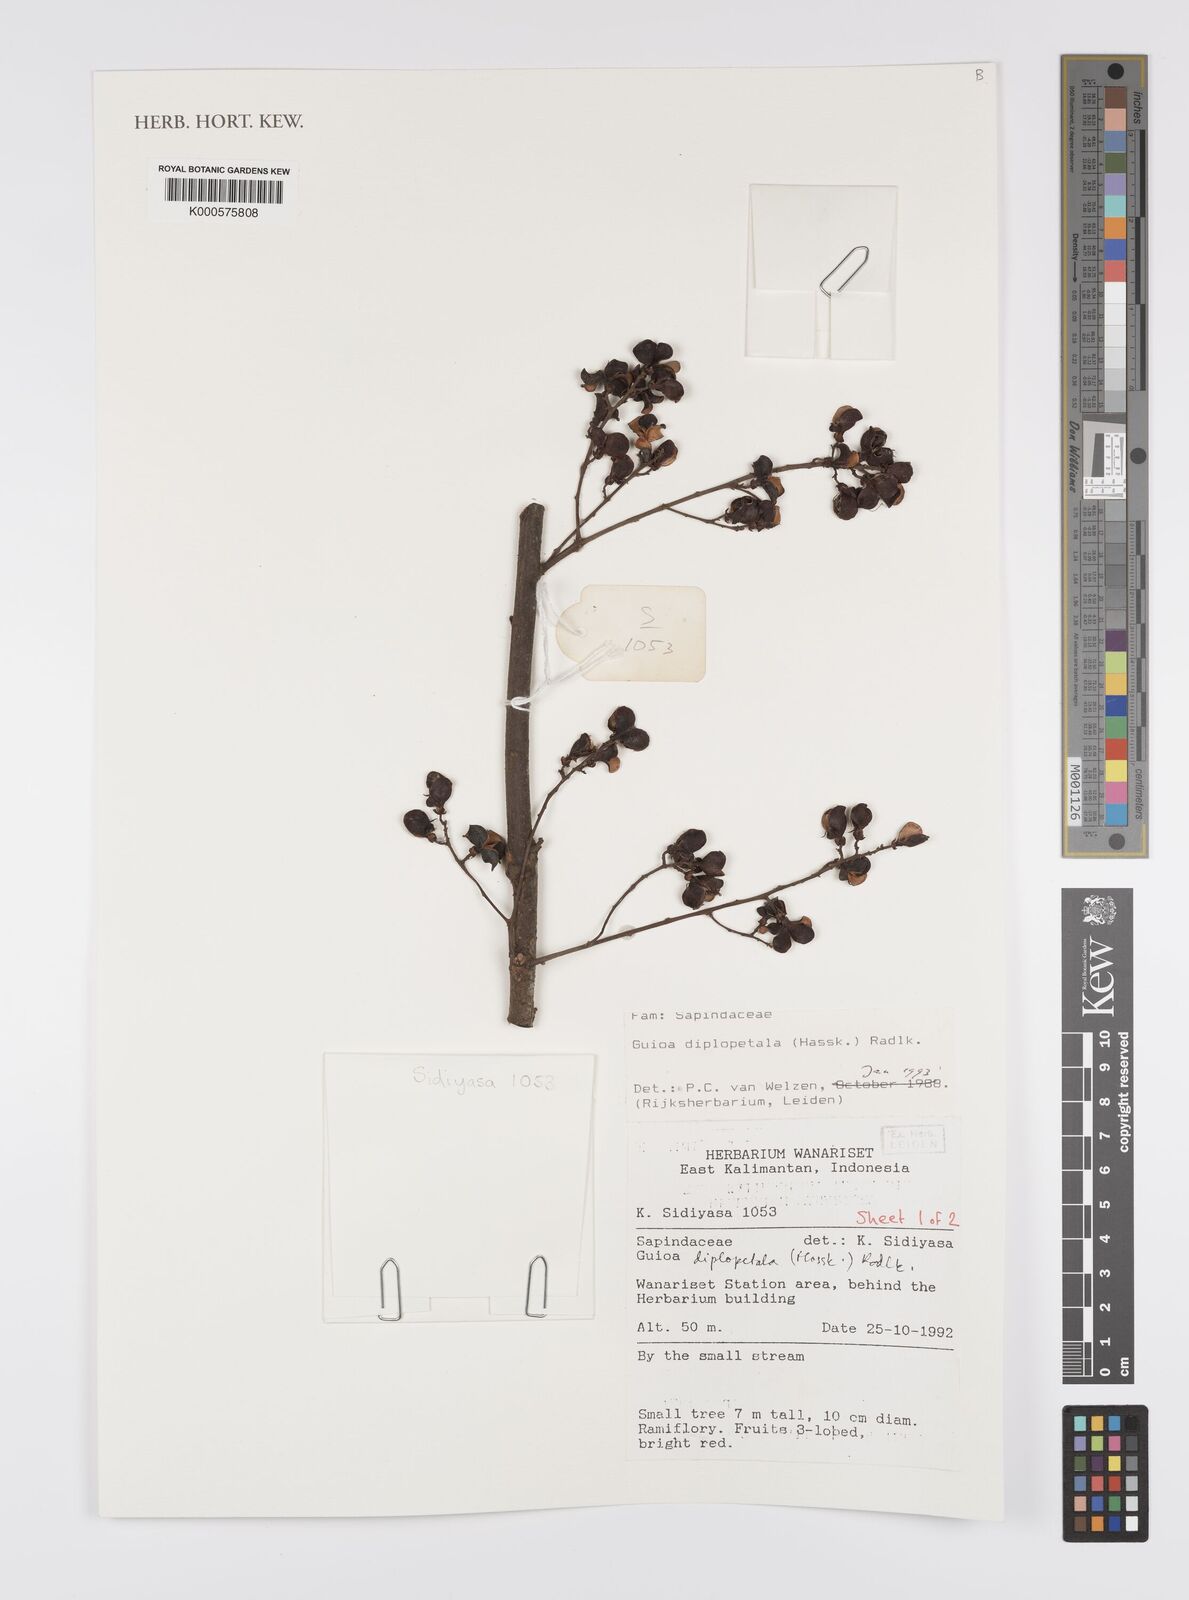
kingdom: Plantae
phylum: Tracheophyta
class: Magnoliopsida
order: Sapindales
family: Sapindaceae
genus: Guioa
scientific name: Guioa diplopetala
